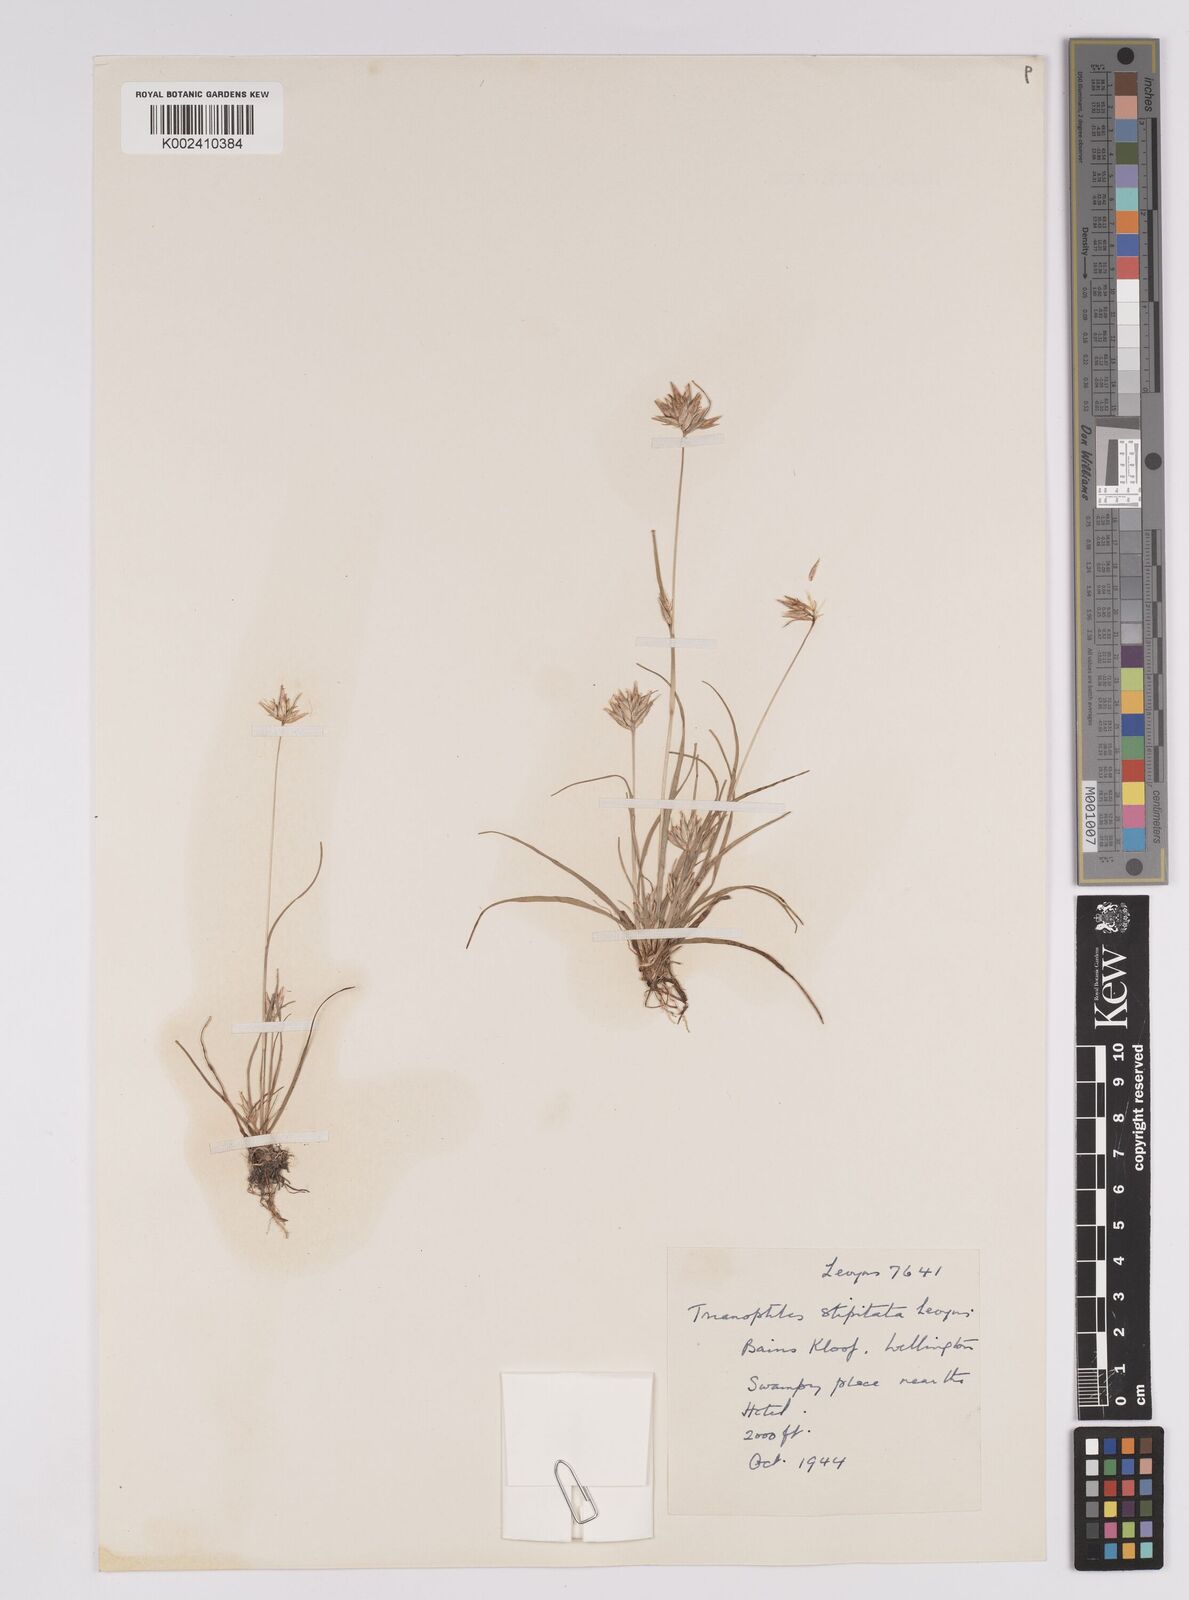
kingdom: Plantae
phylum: Tracheophyta
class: Liliopsida
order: Poales
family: Cyperaceae
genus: Trianoptiles
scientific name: Trianoptiles stipitata
